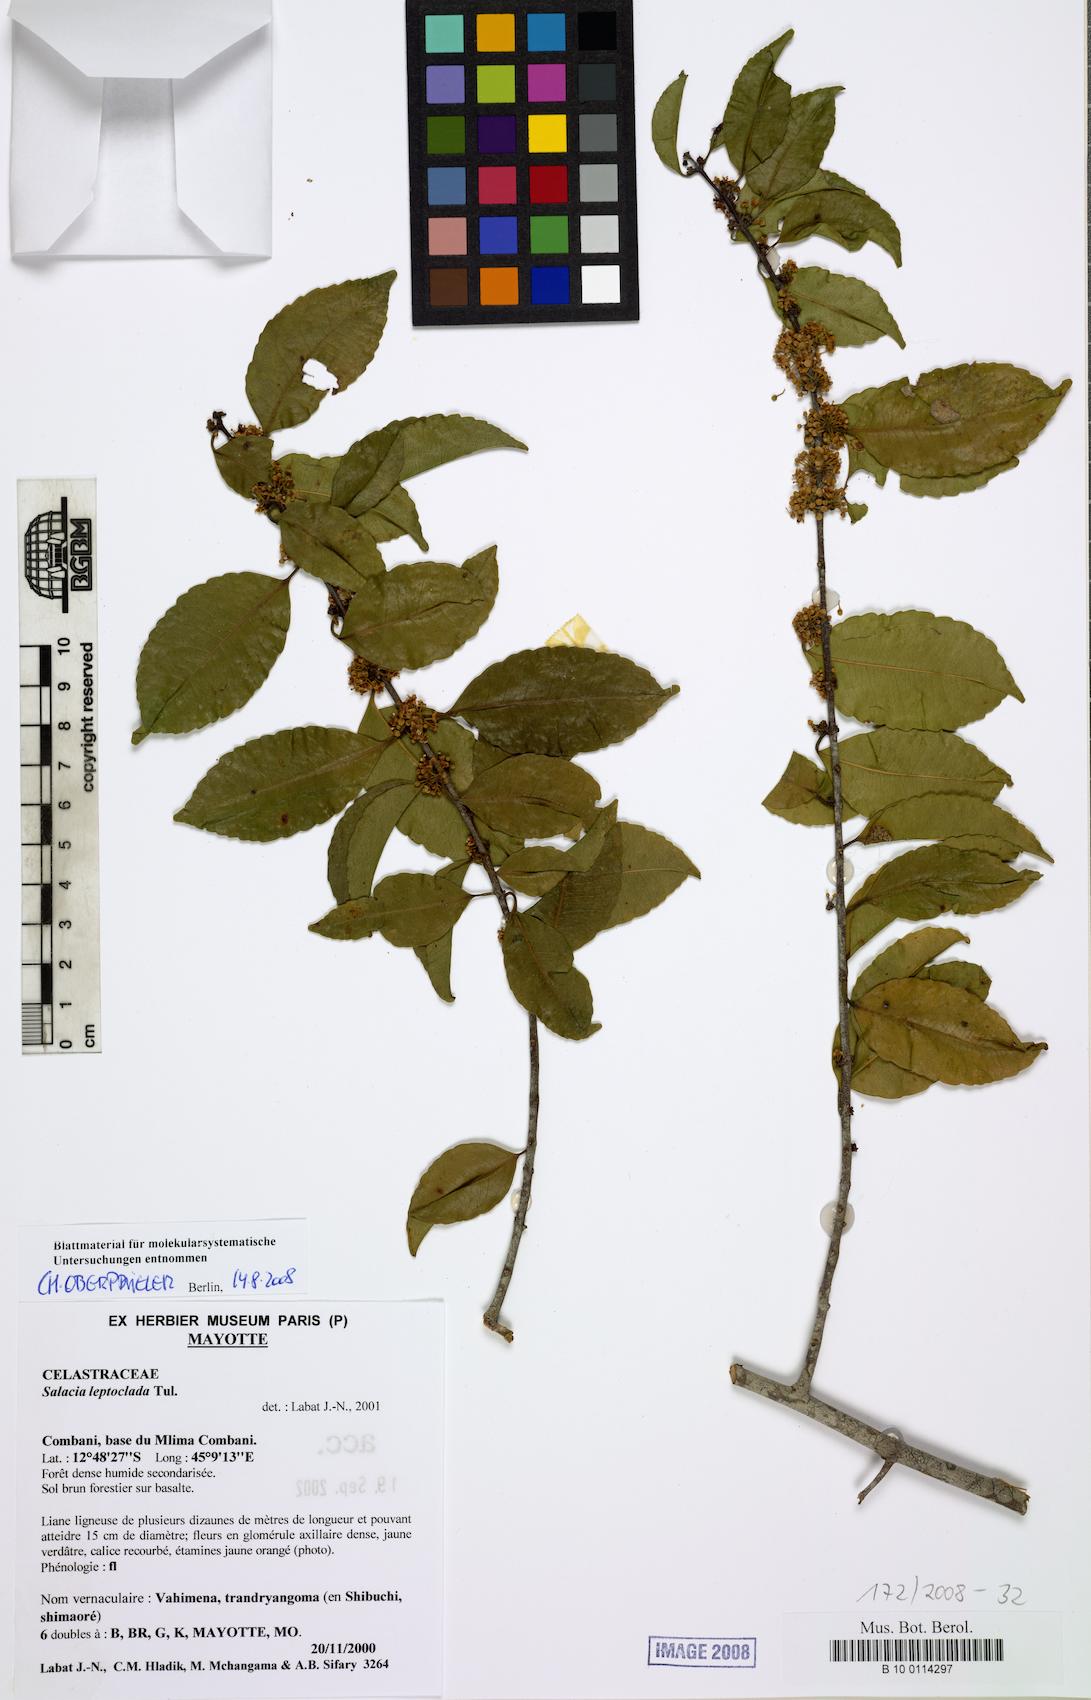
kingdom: Plantae
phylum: Tracheophyta
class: Magnoliopsida
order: Celastrales
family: Celastraceae
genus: Salacia
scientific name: Salacia leptoclada
